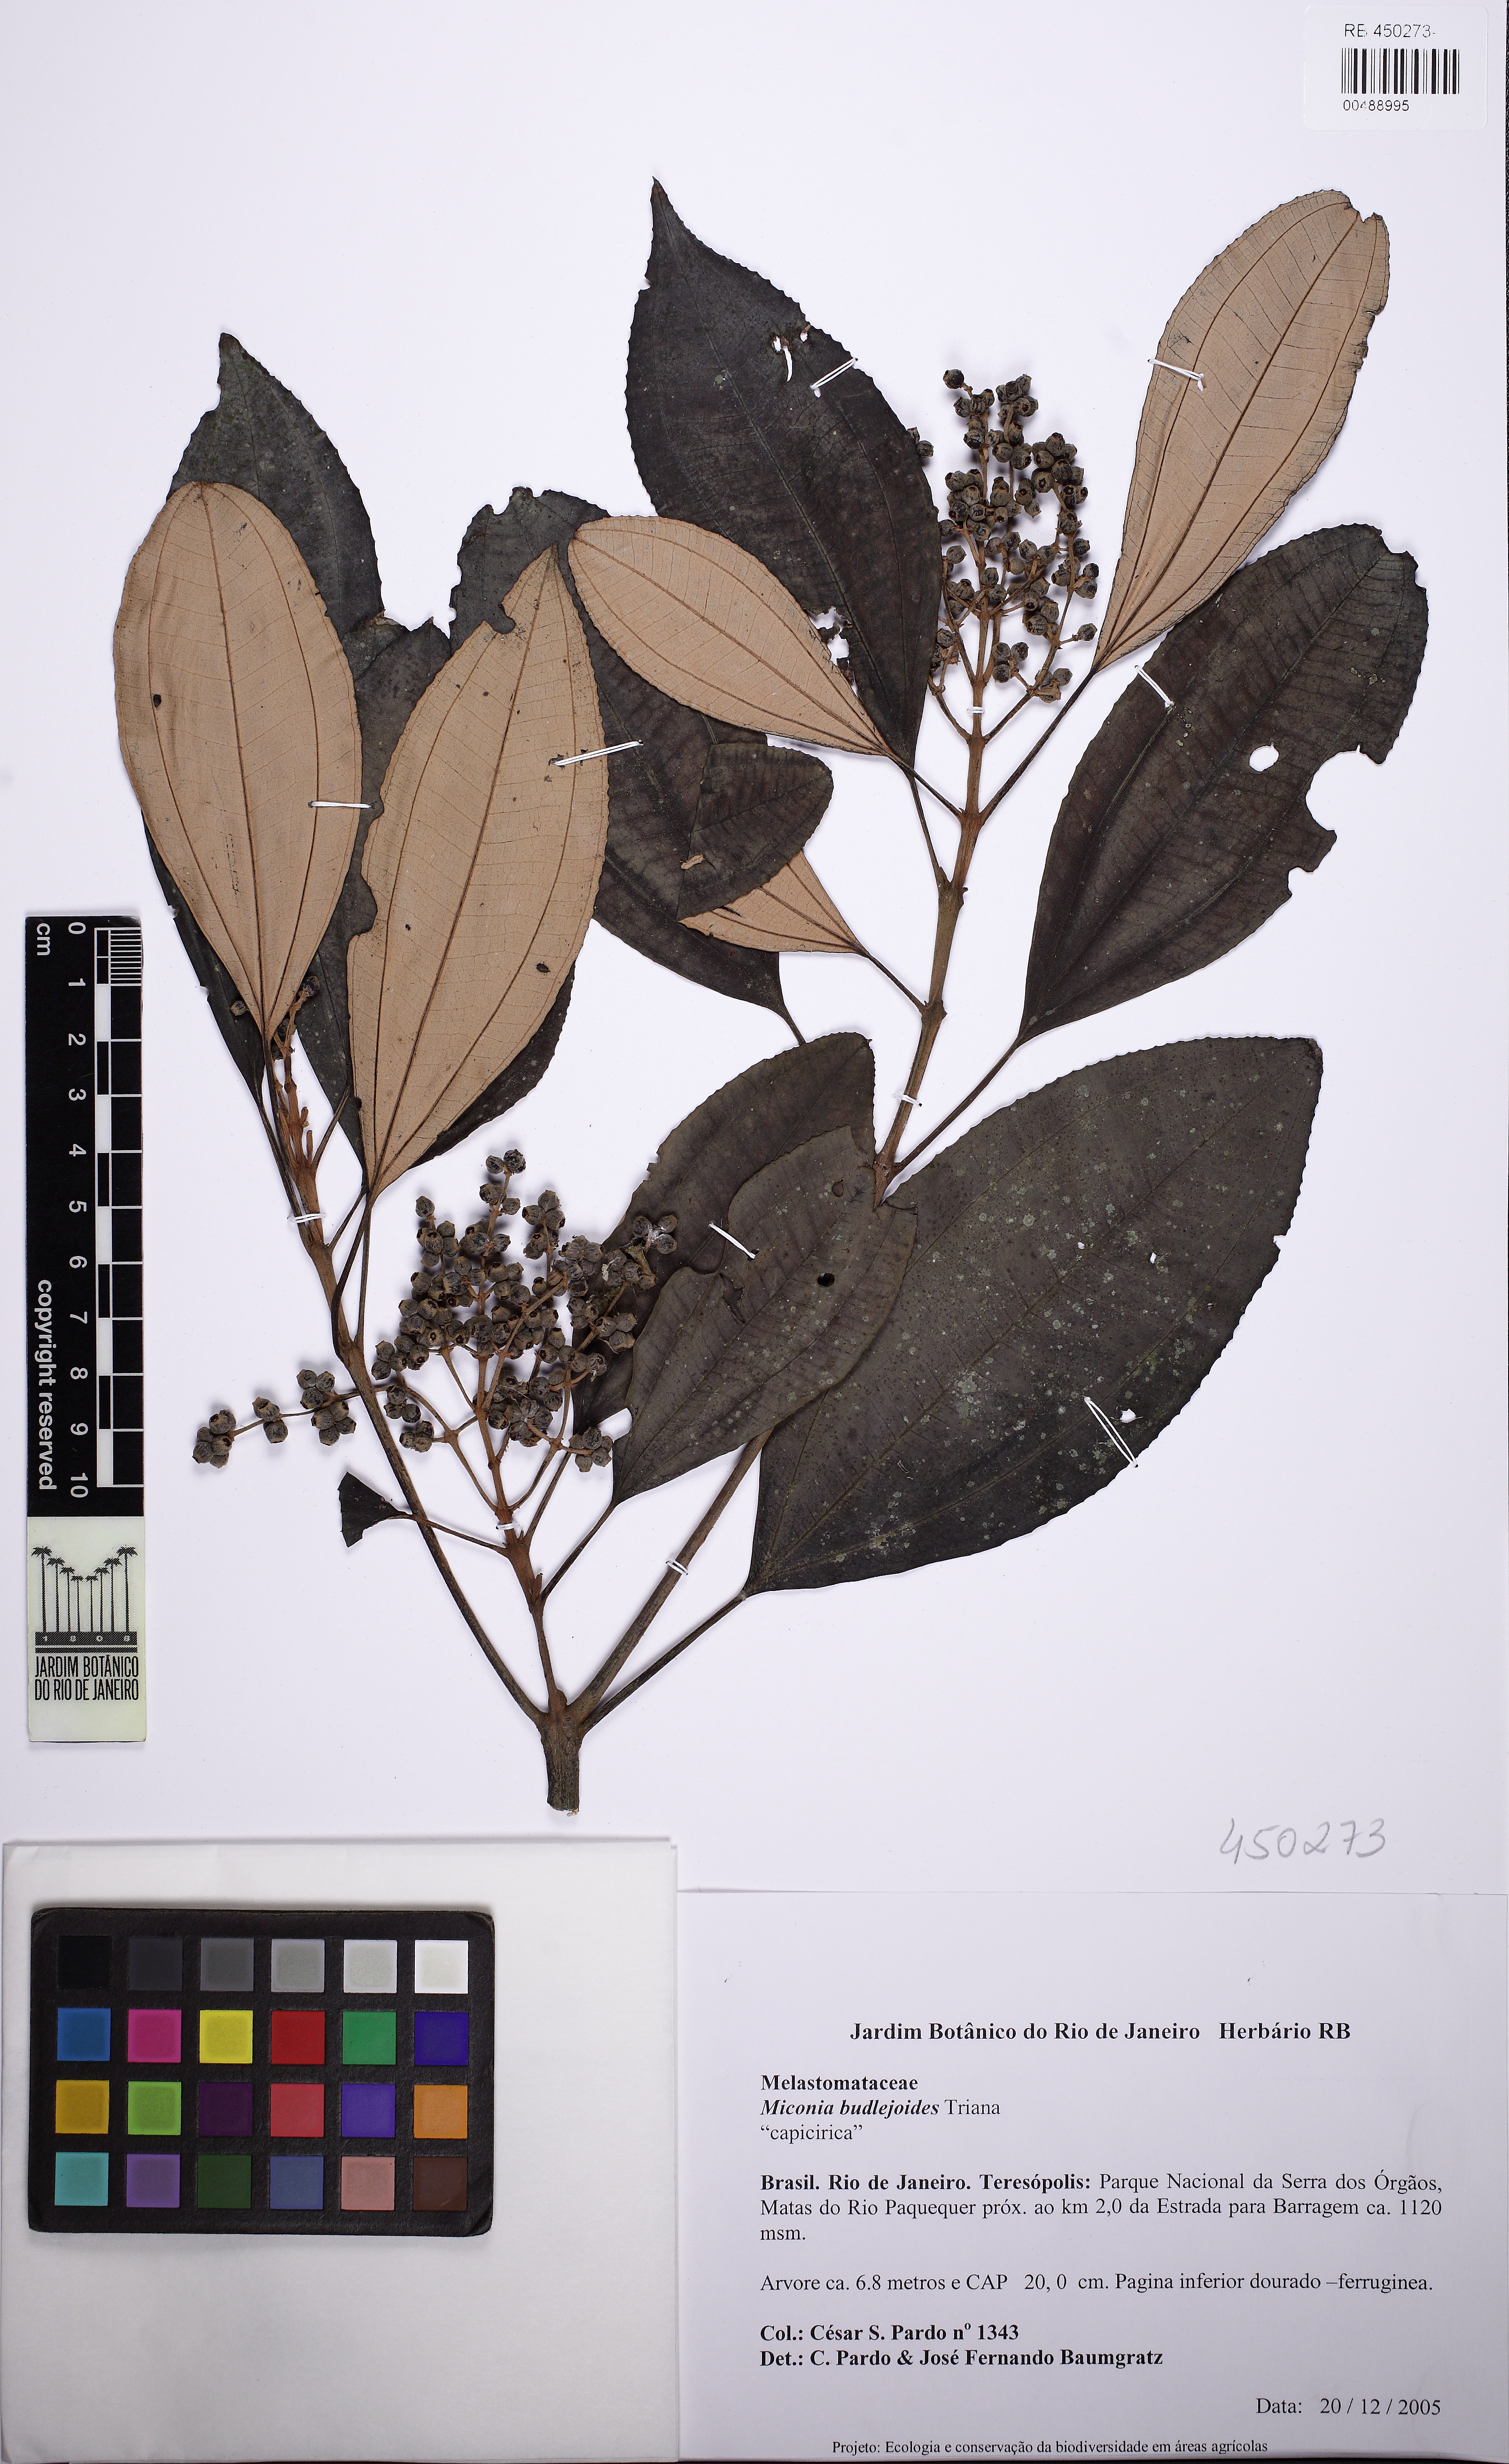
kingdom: Plantae
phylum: Tracheophyta
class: Magnoliopsida
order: Myrtales
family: Melastomataceae
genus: Miconia
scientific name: Miconia goldenbergiana
